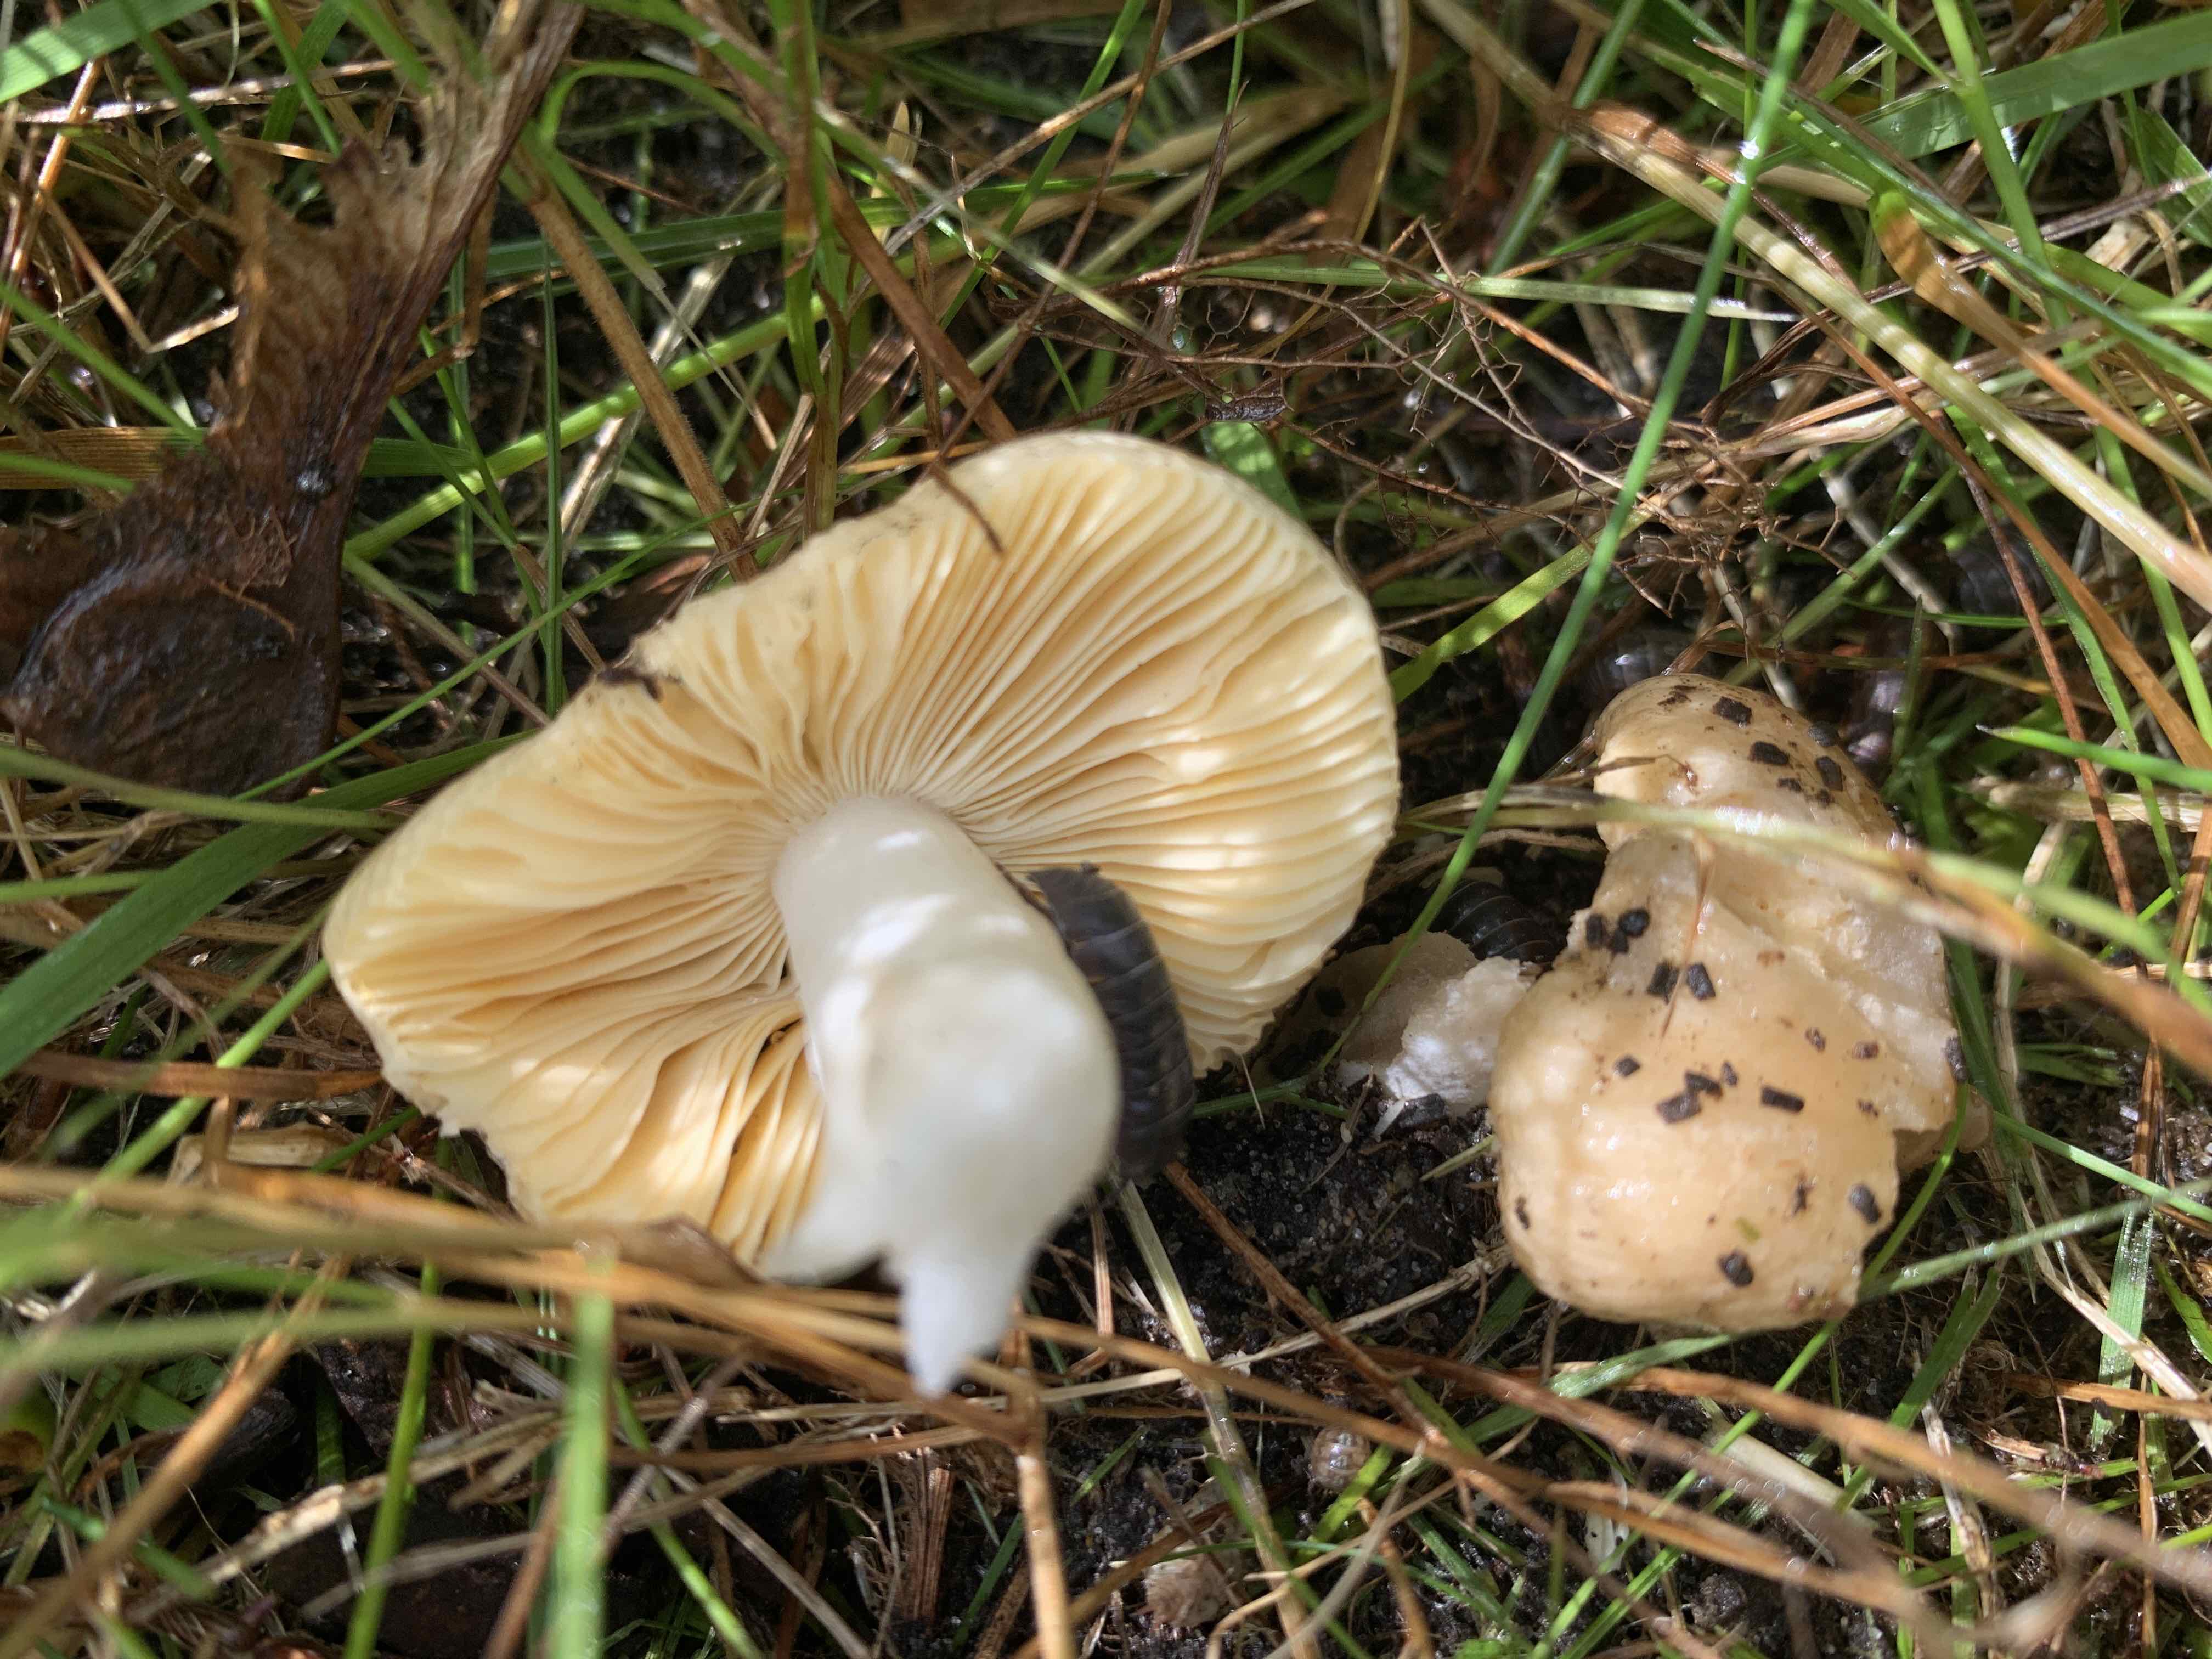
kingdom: Fungi
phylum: Basidiomycota
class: Agaricomycetes
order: Russulales
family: Russulaceae
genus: Russula
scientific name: Russula odorata
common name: duft-skørhat
